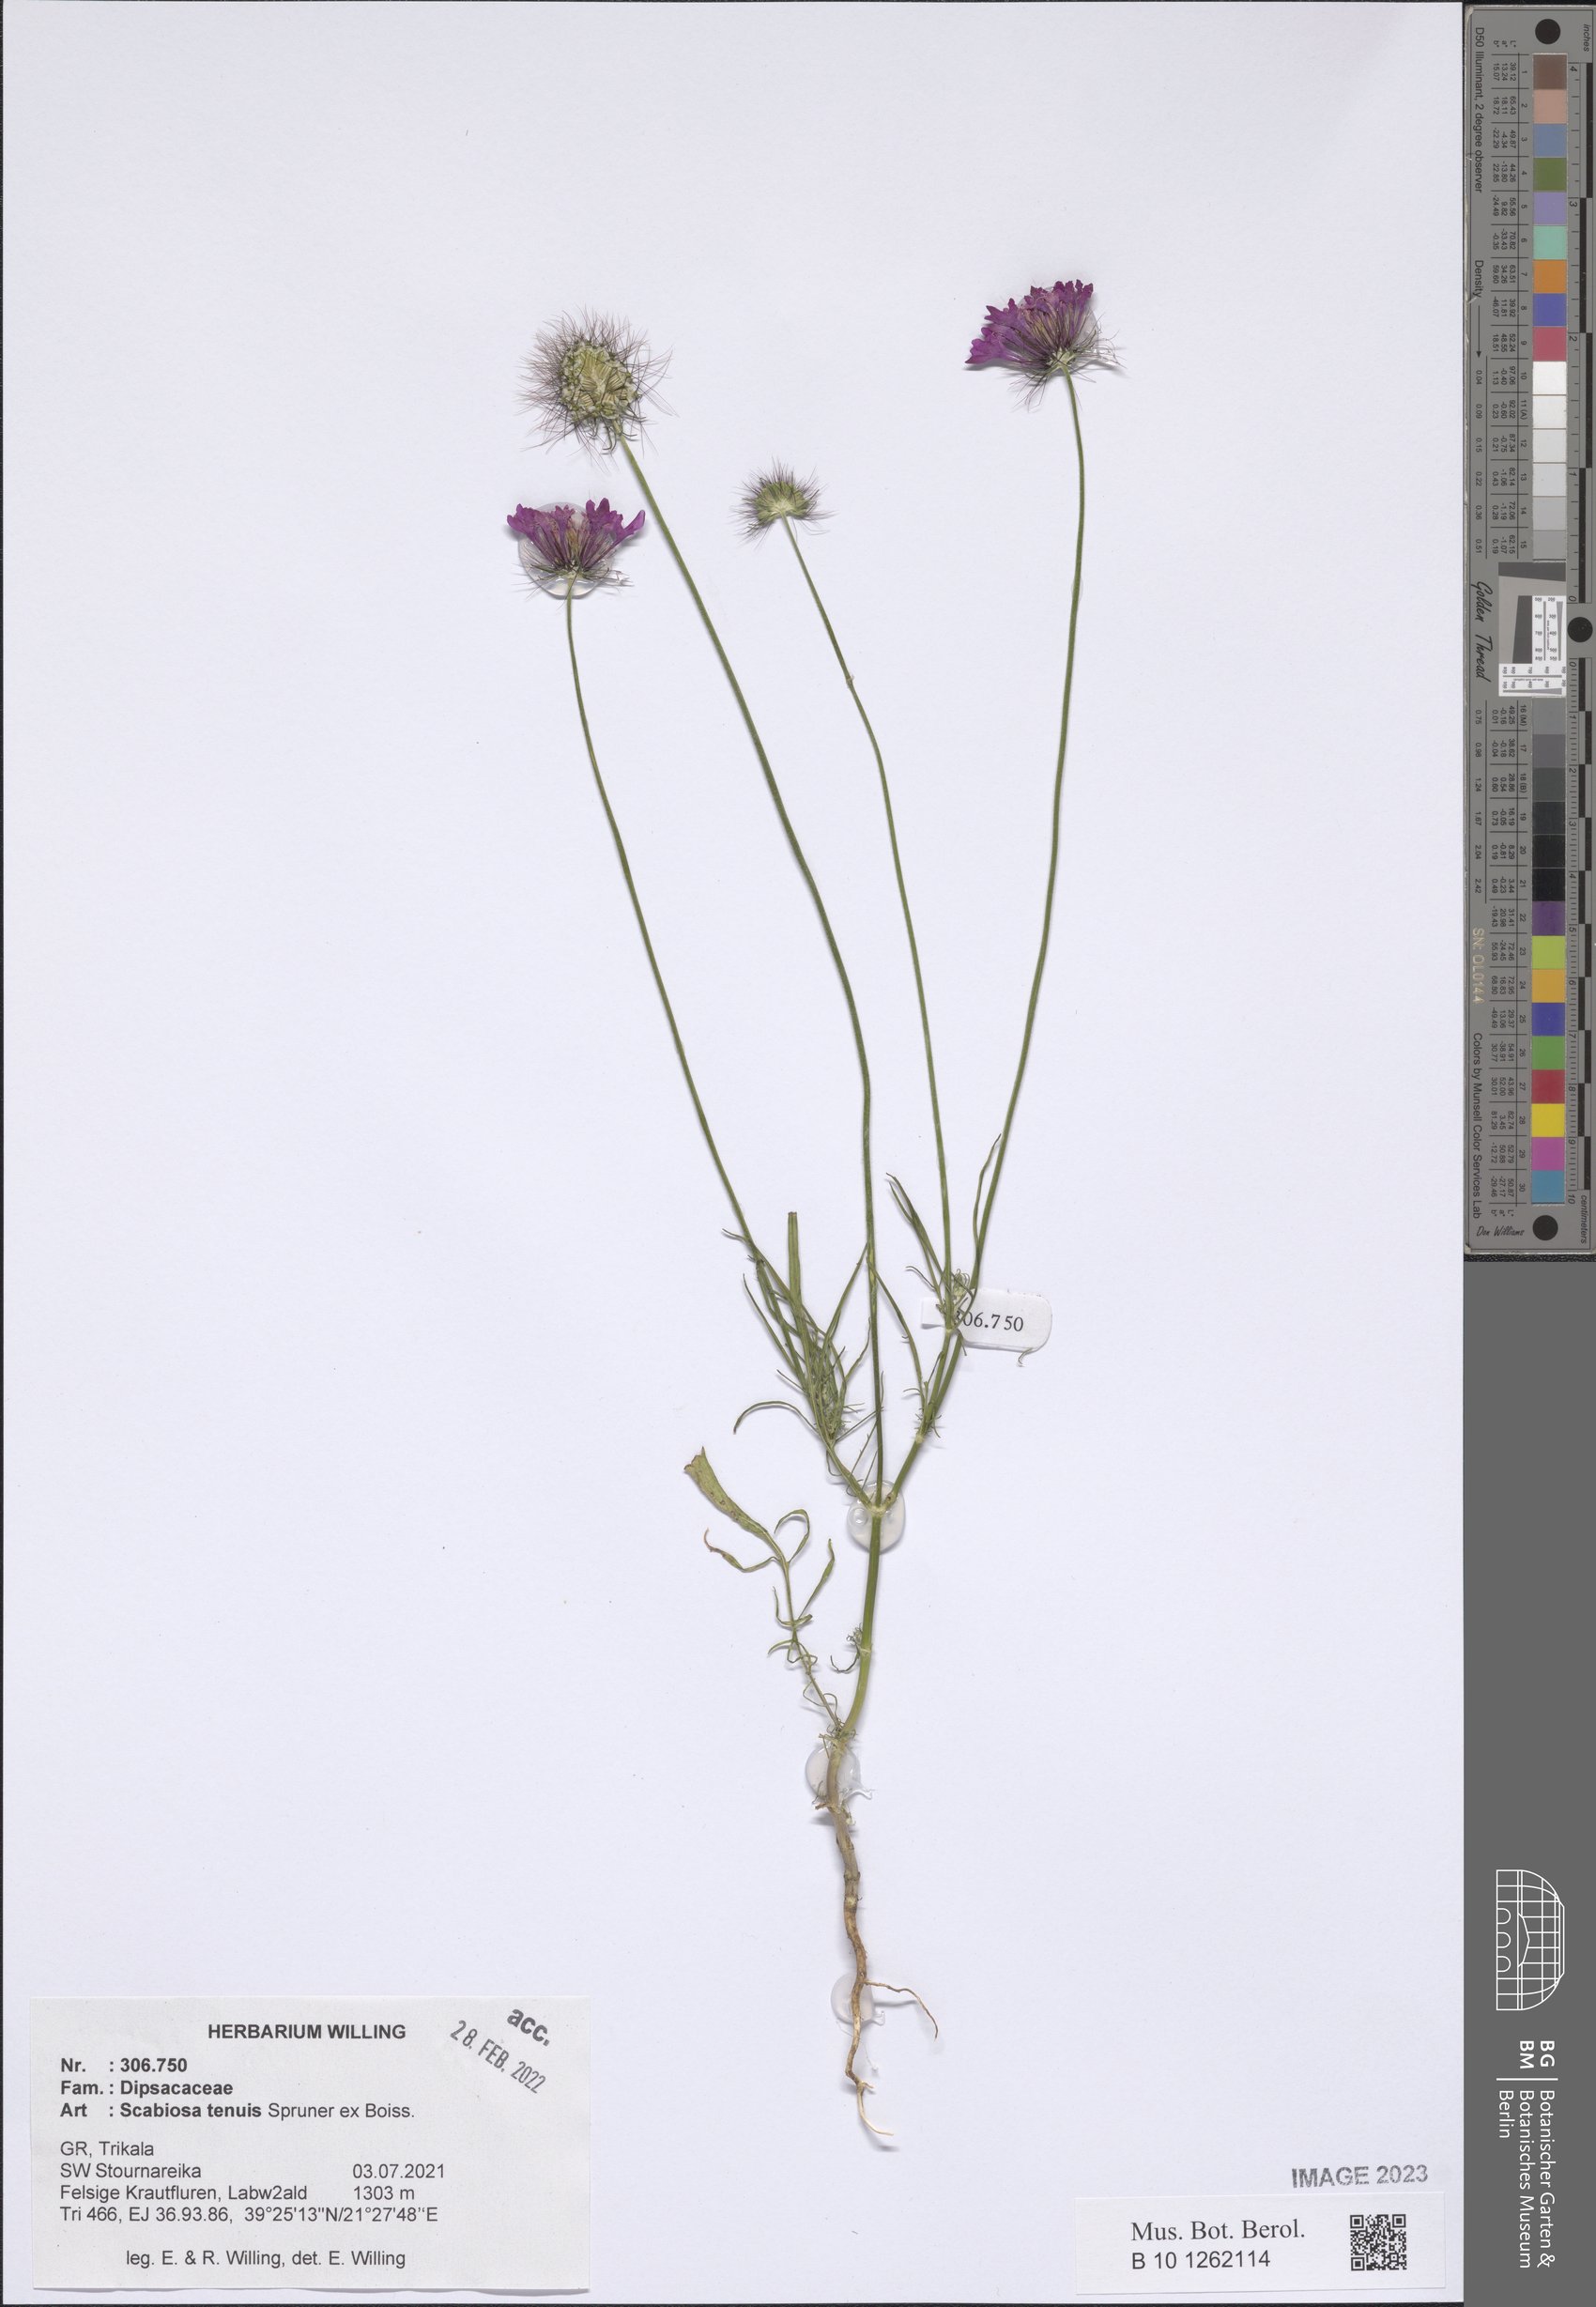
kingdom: Plantae
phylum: Tracheophyta
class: Magnoliopsida
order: Dipsacales
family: Caprifoliaceae
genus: Scabiosa
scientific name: Scabiosa tenuis
